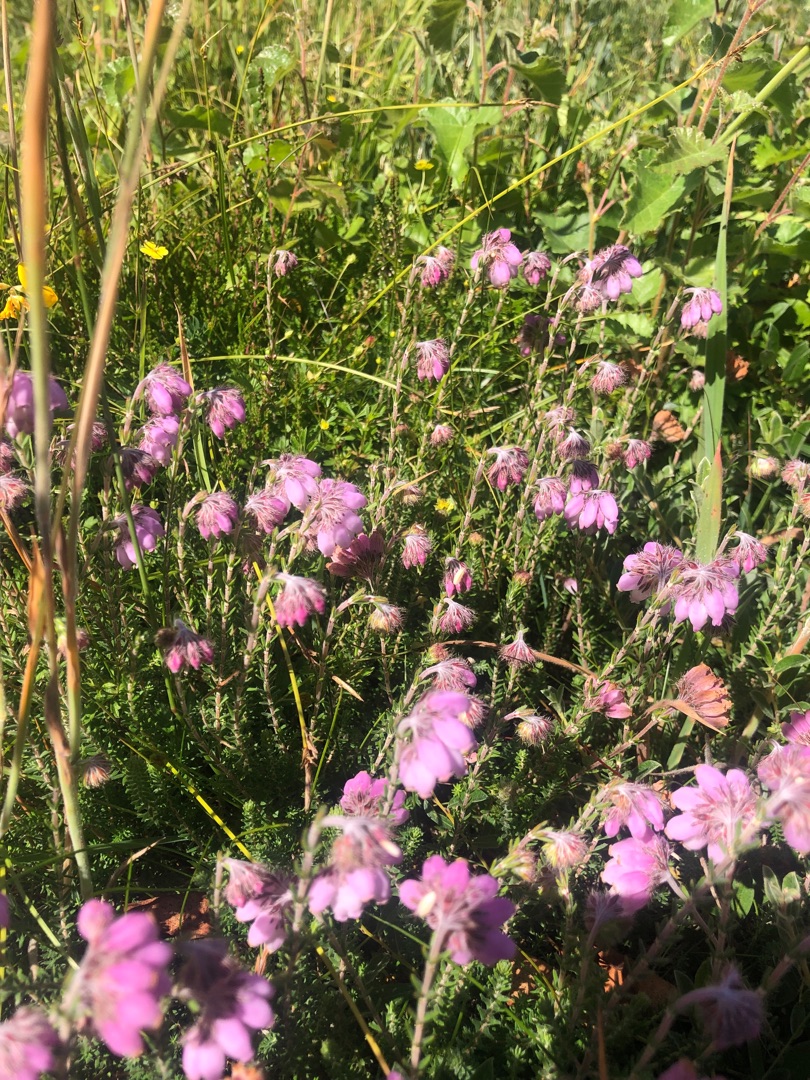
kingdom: Plantae
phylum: Tracheophyta
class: Magnoliopsida
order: Ericales
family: Ericaceae
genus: Erica
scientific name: Erica tetralix
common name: Klokkelyng
